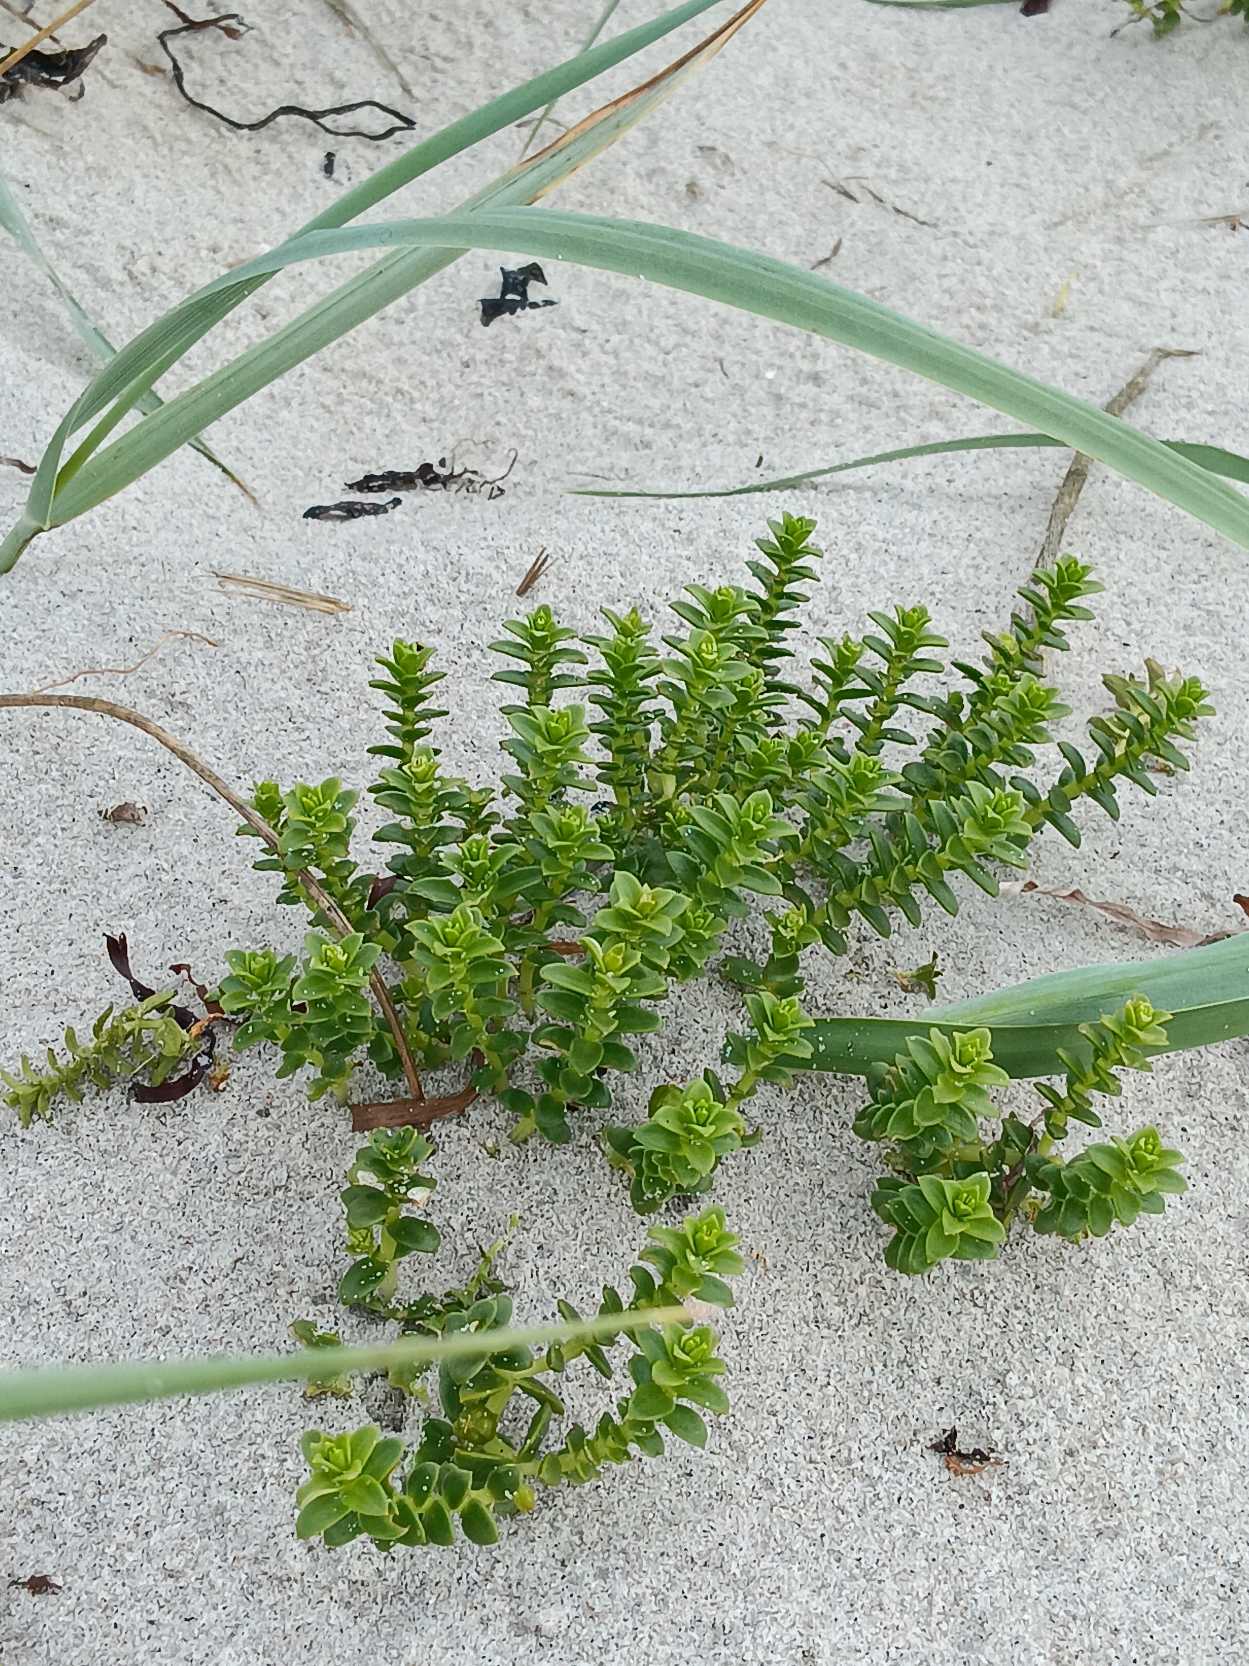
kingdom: Plantae
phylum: Tracheophyta
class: Magnoliopsida
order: Caryophyllales
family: Caryophyllaceae
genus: Honckenya
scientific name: Honckenya peploides
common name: Strandarve
